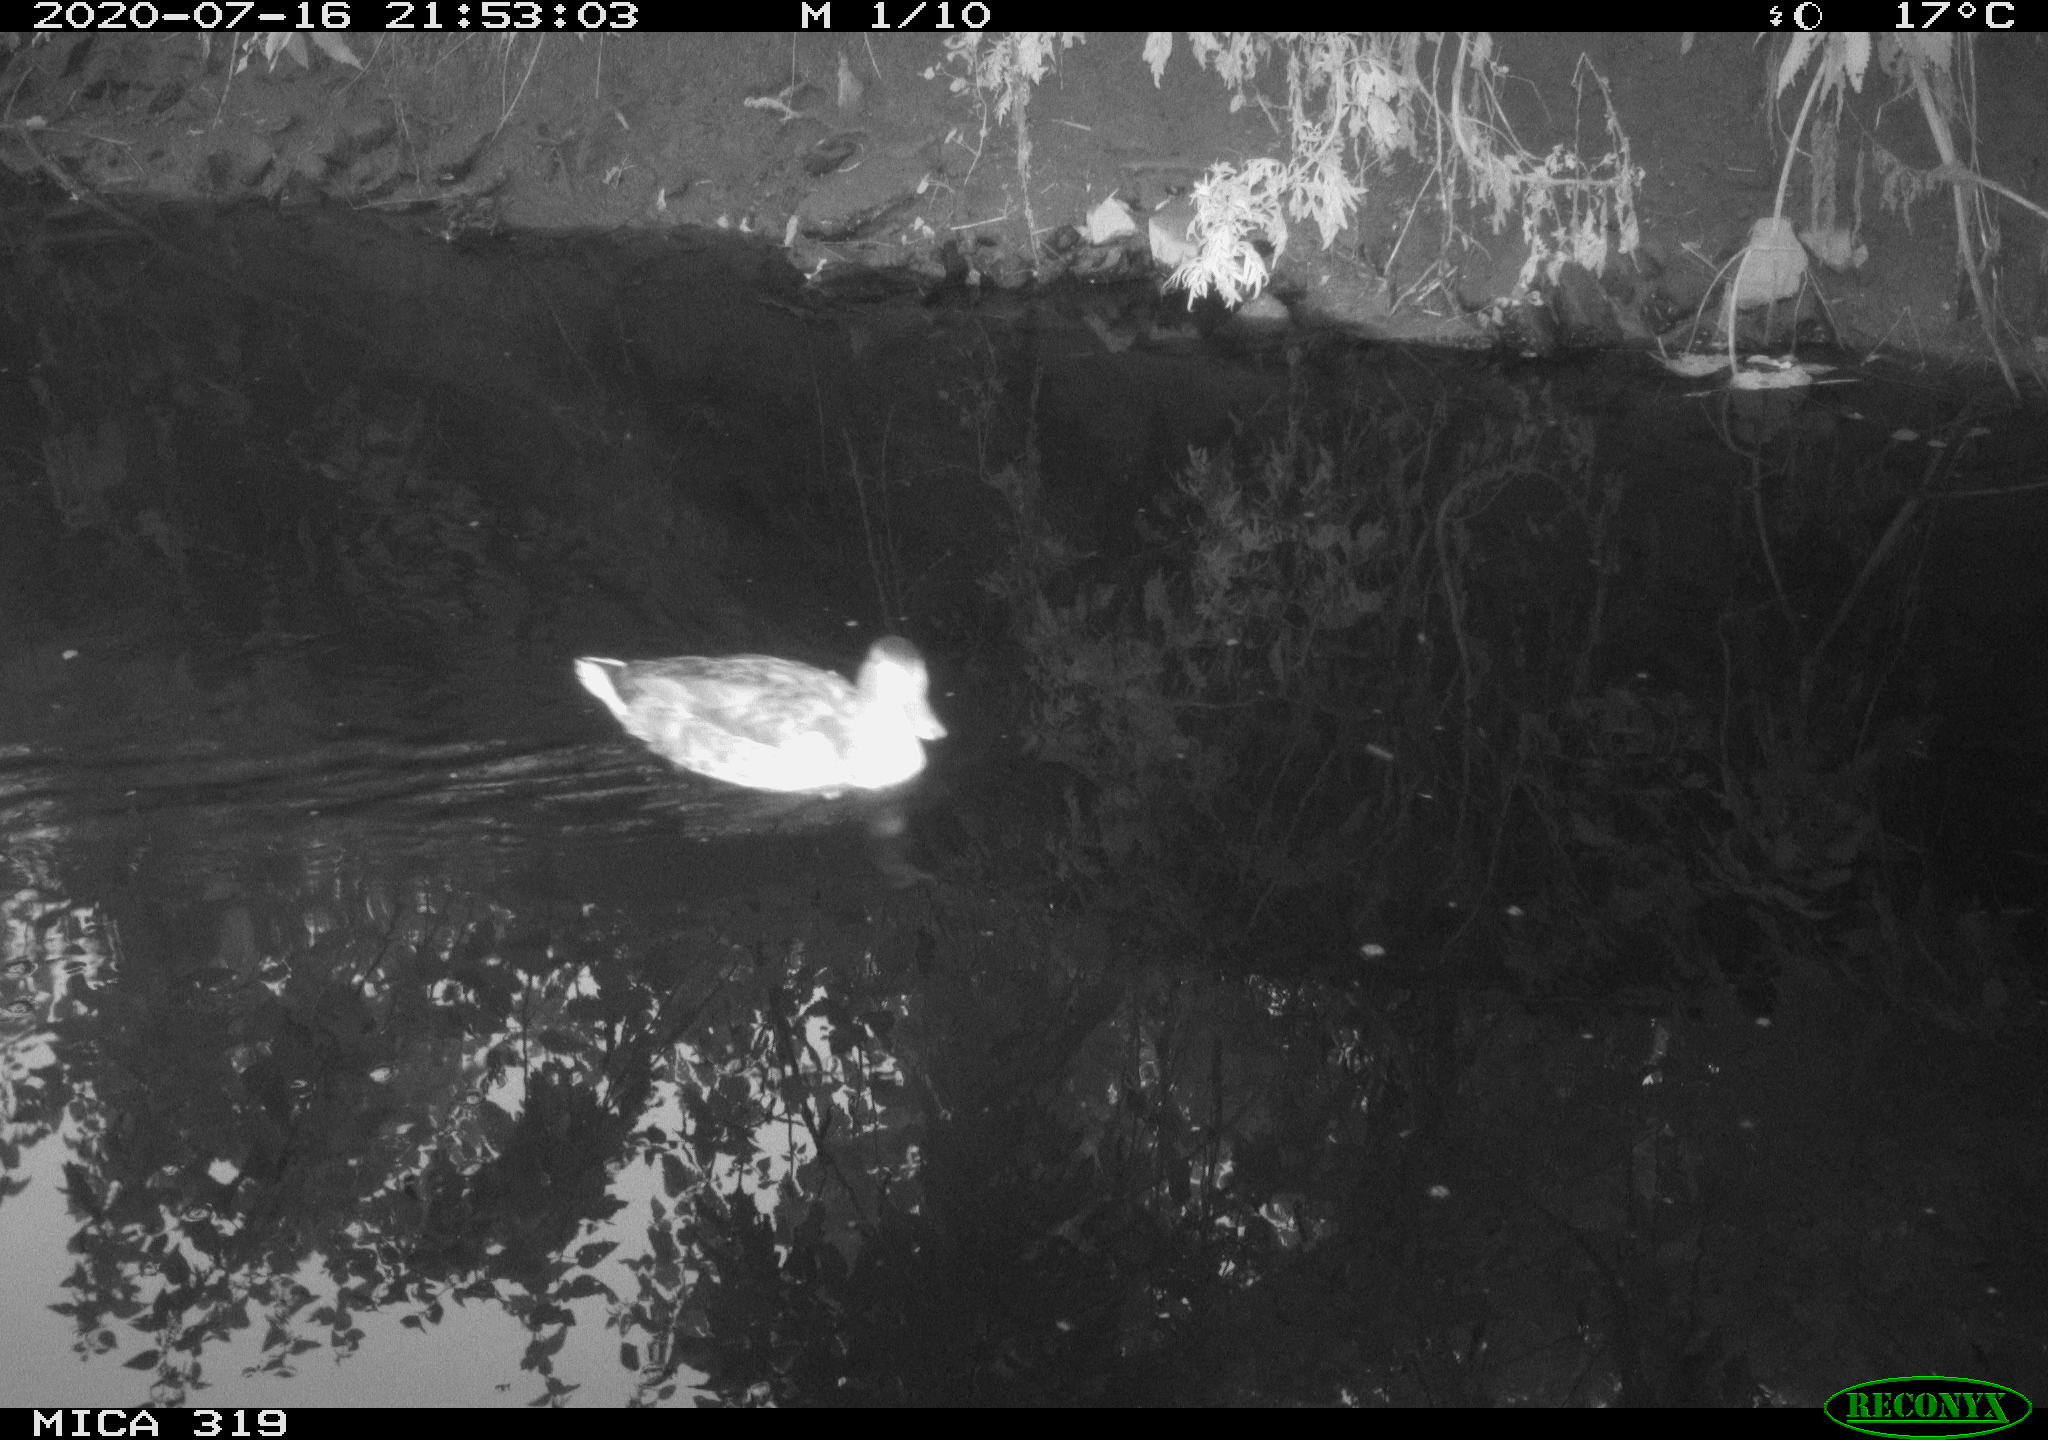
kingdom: Animalia
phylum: Chordata
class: Aves
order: Anseriformes
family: Anatidae
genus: Anas
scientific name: Anas platyrhynchos
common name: Mallard
